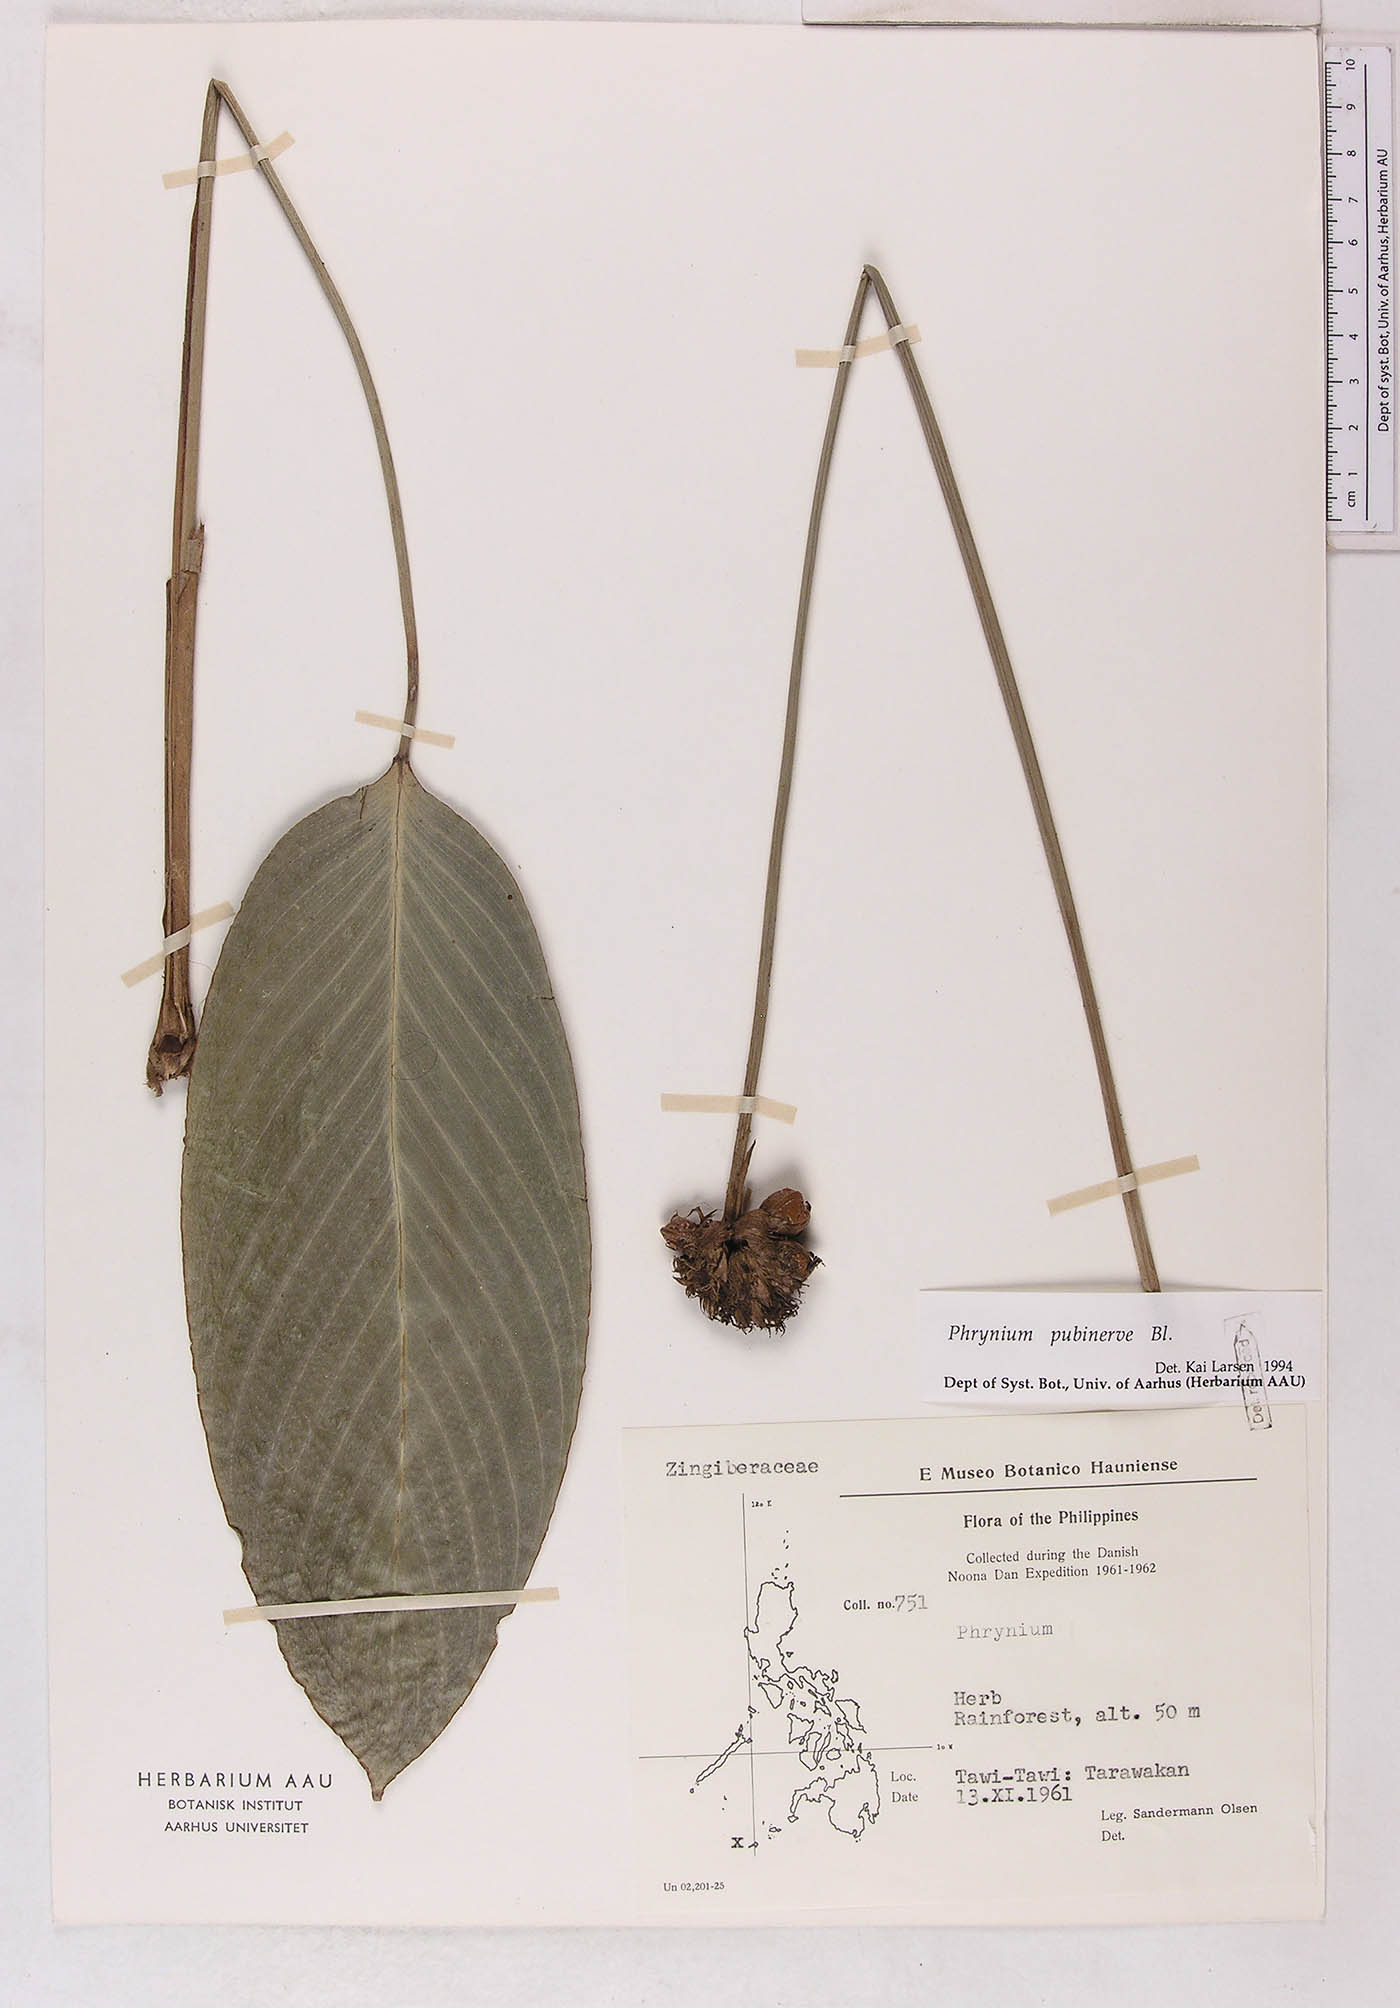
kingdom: Plantae
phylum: Tracheophyta
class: Liliopsida
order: Zingiberales
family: Marantaceae
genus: Phrynium
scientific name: Phrynium pubinerve
